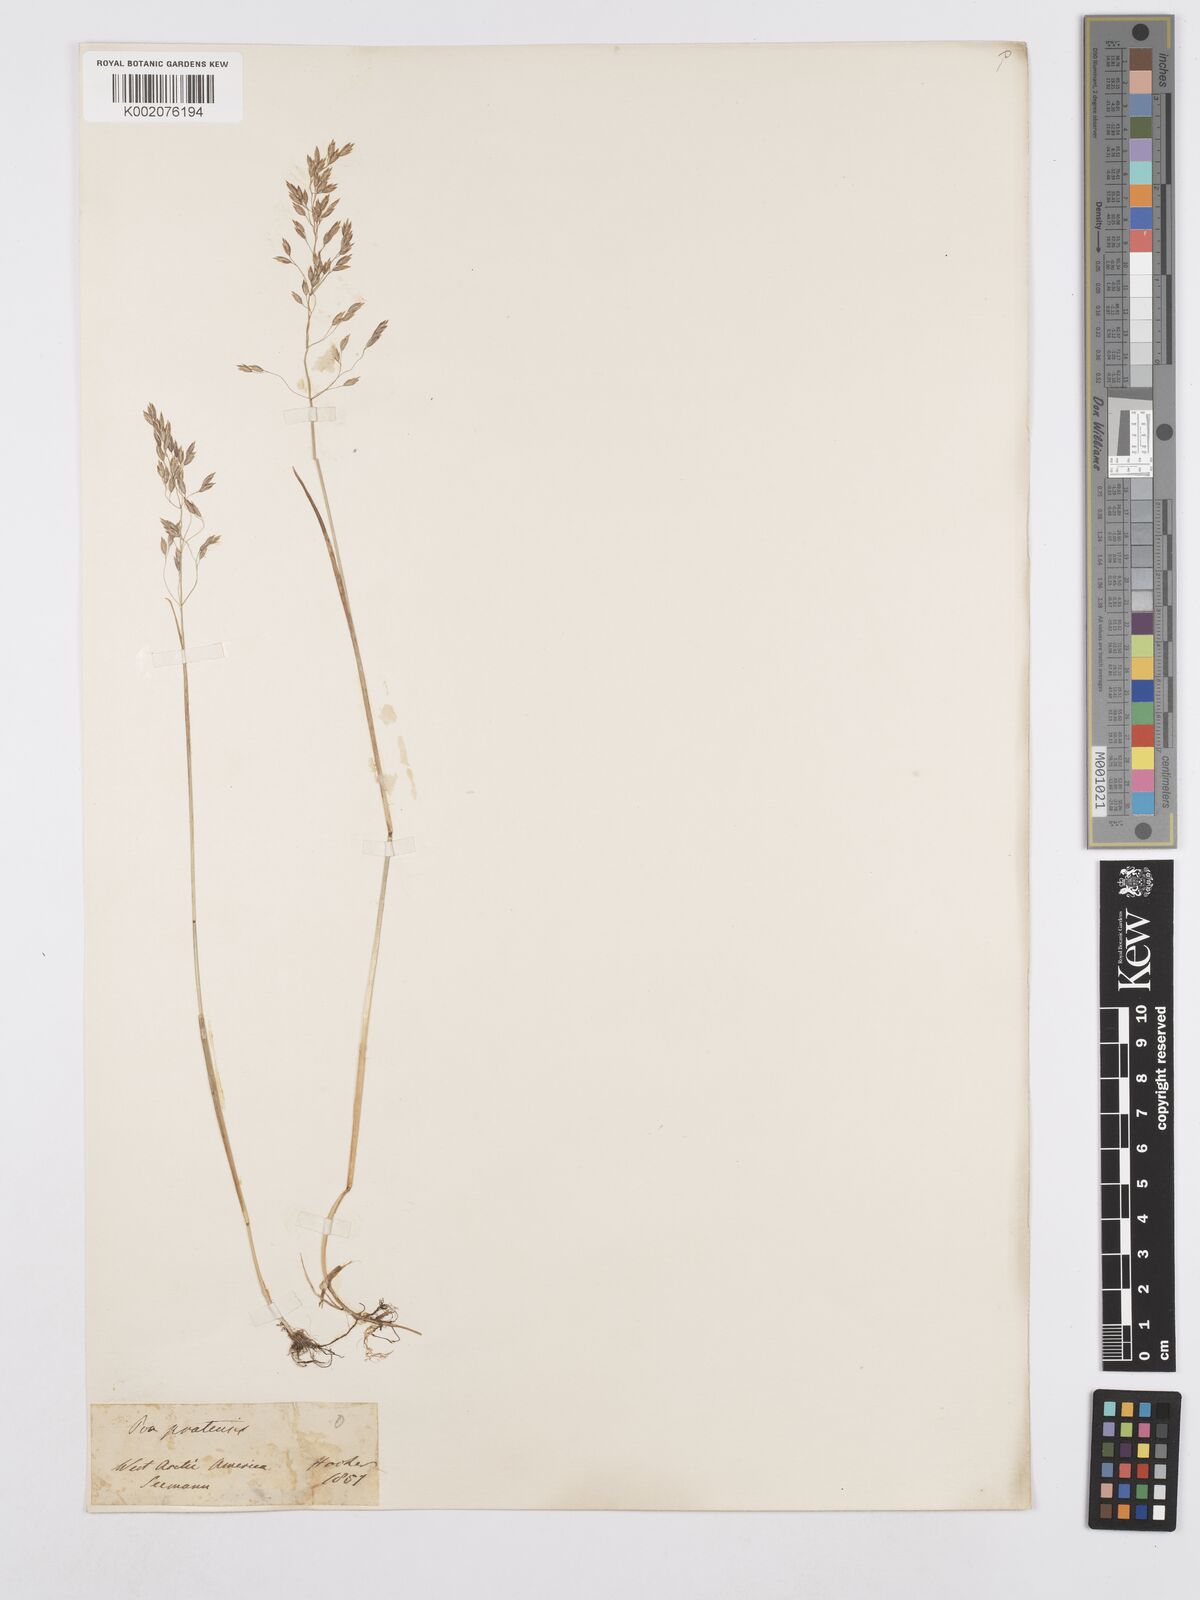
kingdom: Plantae
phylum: Tracheophyta
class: Liliopsida
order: Poales
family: Poaceae
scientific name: Poaceae
